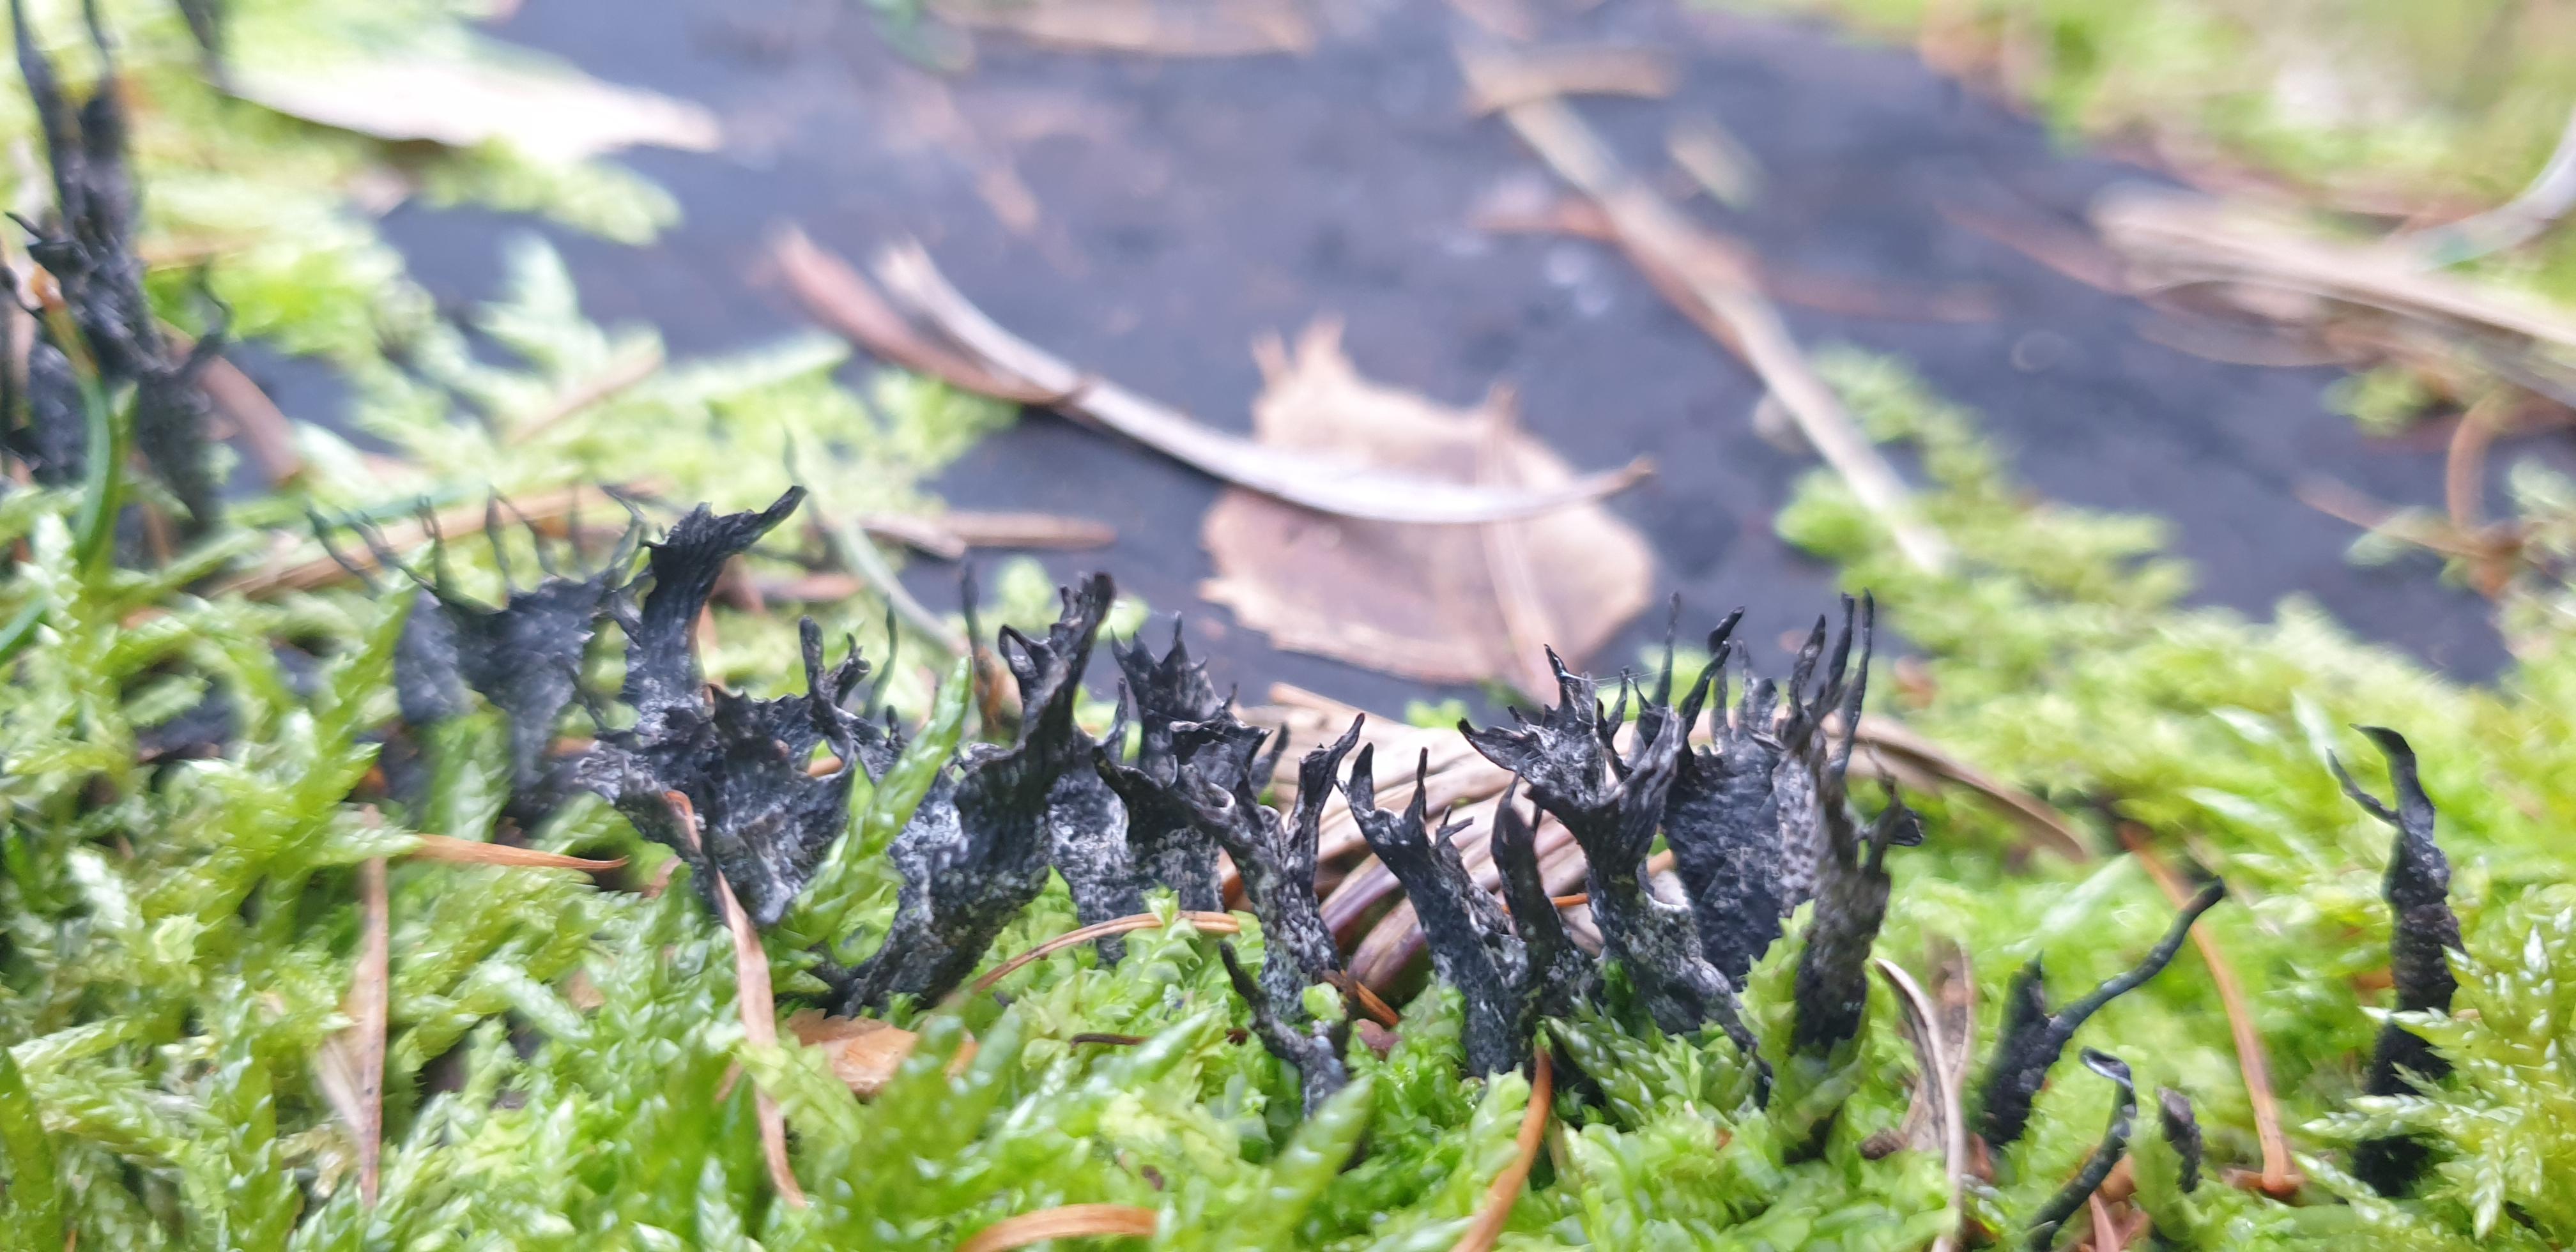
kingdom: Fungi
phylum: Ascomycota
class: Sordariomycetes
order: Xylariales
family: Xylariaceae
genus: Xylaria
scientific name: Xylaria hypoxylon
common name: grenet stødsvamp
